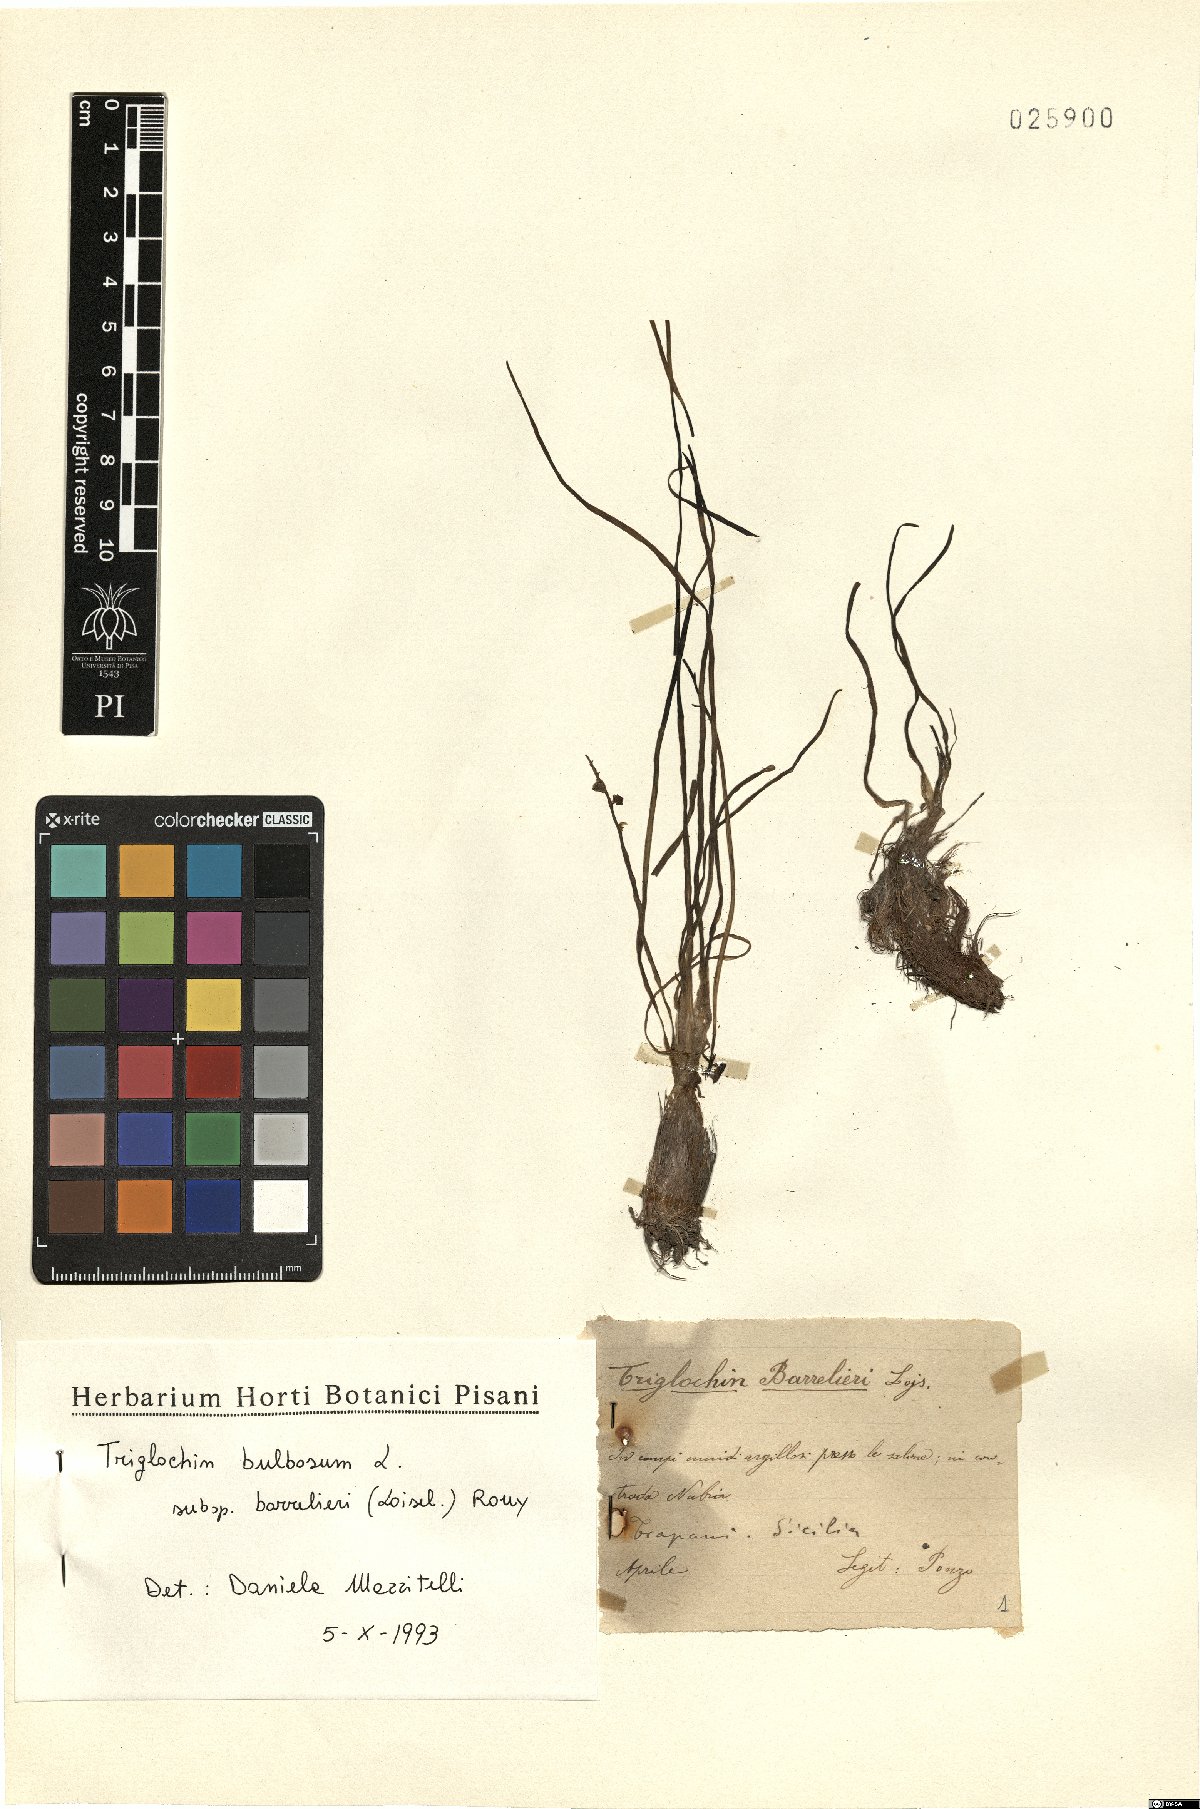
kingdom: Plantae
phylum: Tracheophyta
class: Liliopsida
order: Alismatales
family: Juncaginaceae
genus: Triglochin
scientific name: Triglochin barrelieri
